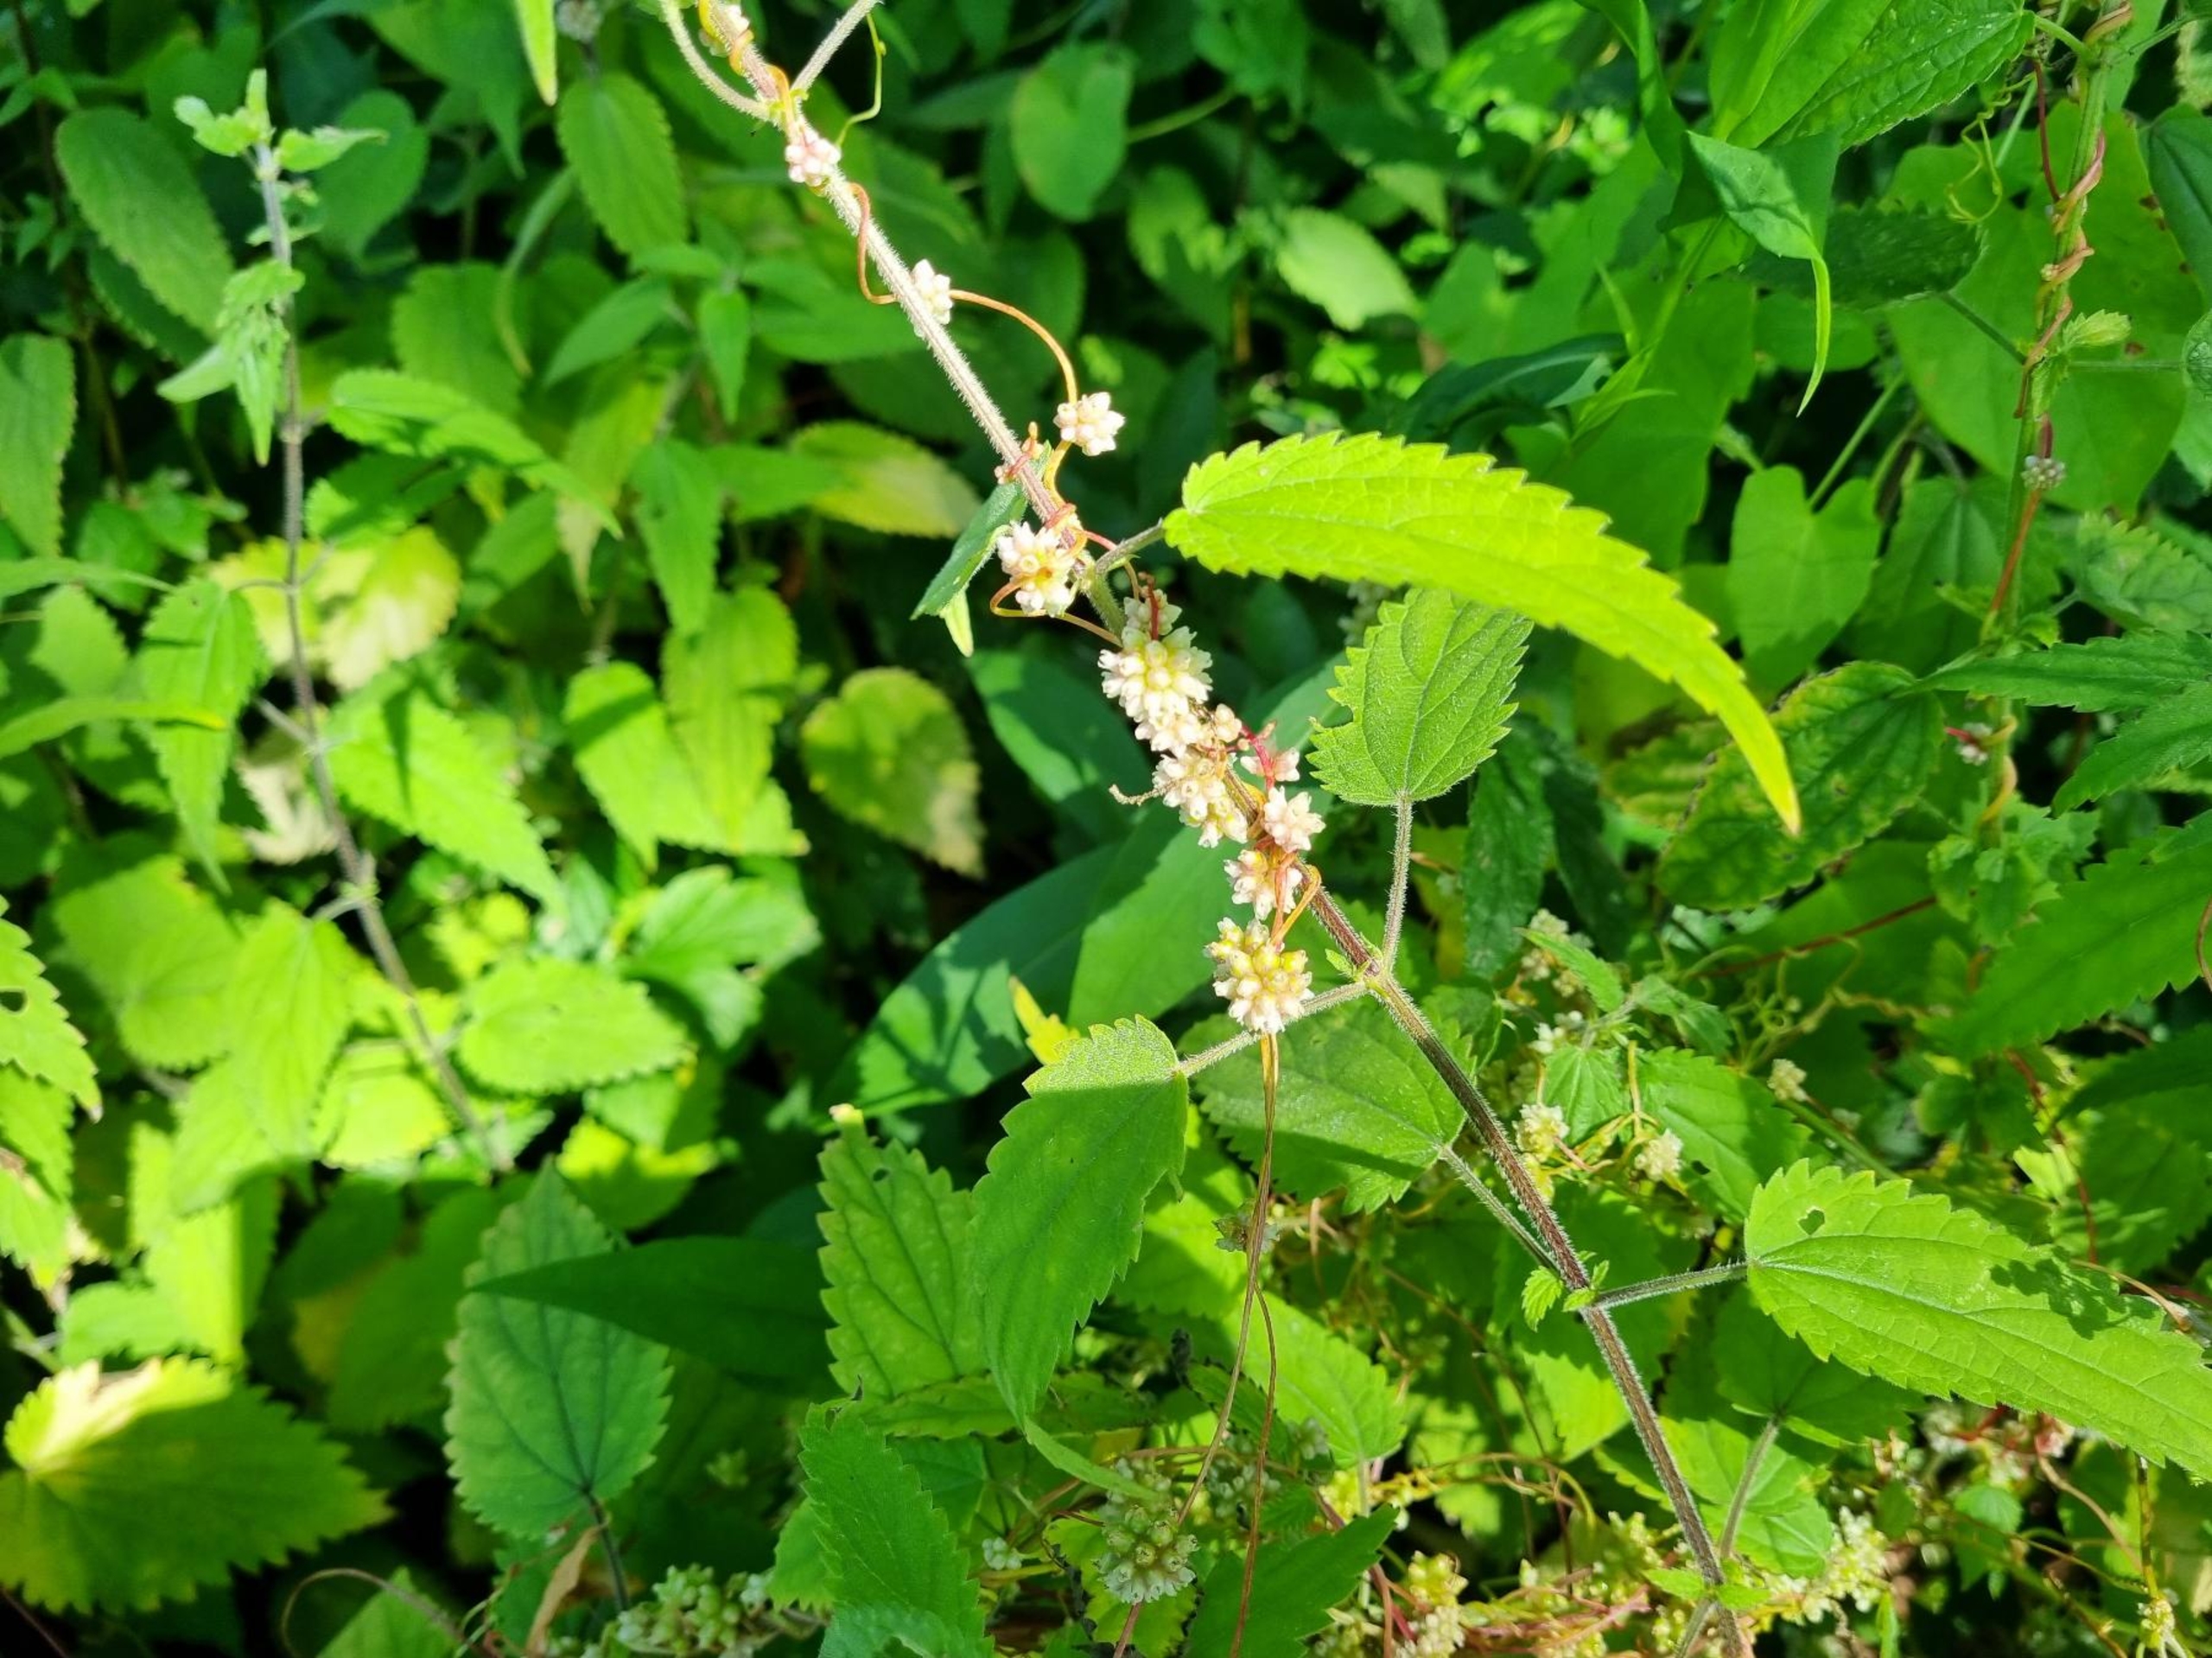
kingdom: Plantae
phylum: Tracheophyta
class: Magnoliopsida
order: Solanales
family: Convolvulaceae
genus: Cuscuta
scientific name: Cuscuta europaea
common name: Nælde-silke
